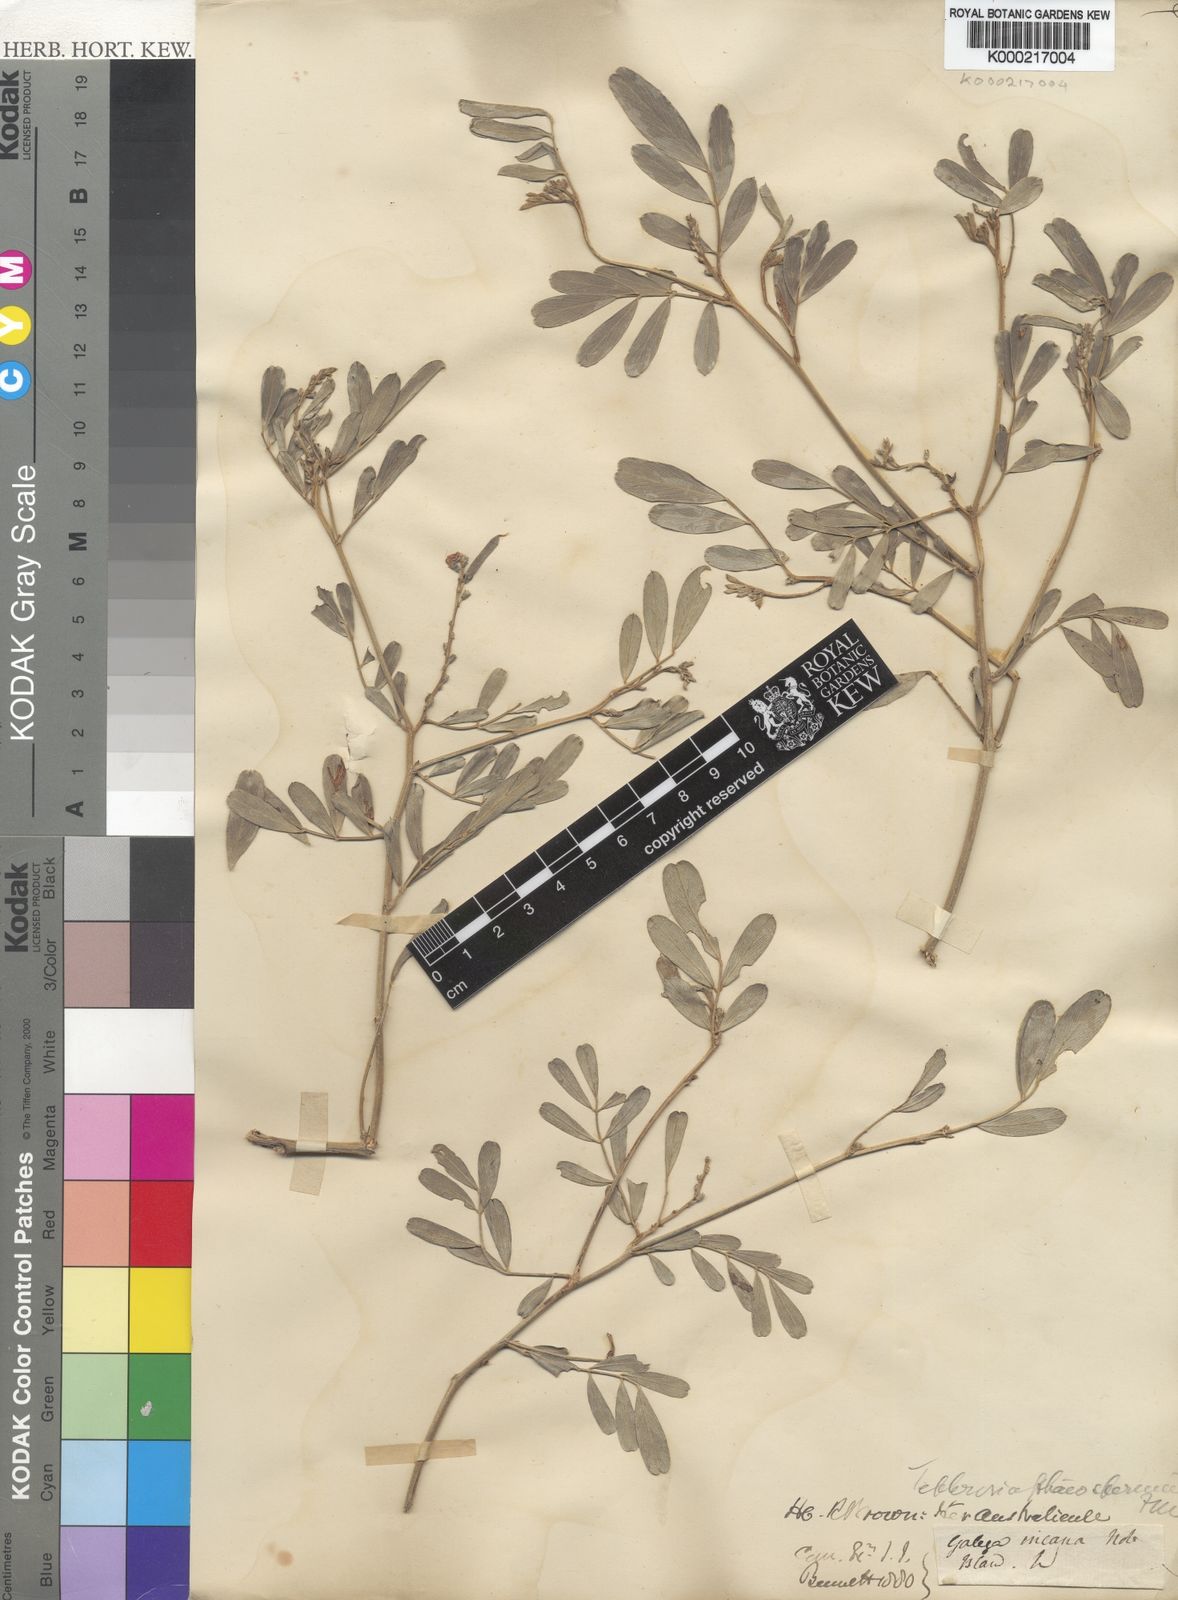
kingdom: Plantae
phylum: Tracheophyta
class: Magnoliopsida
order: Fabales
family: Fabaceae
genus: Tephrosia
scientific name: Tephrosia phaeosperma
